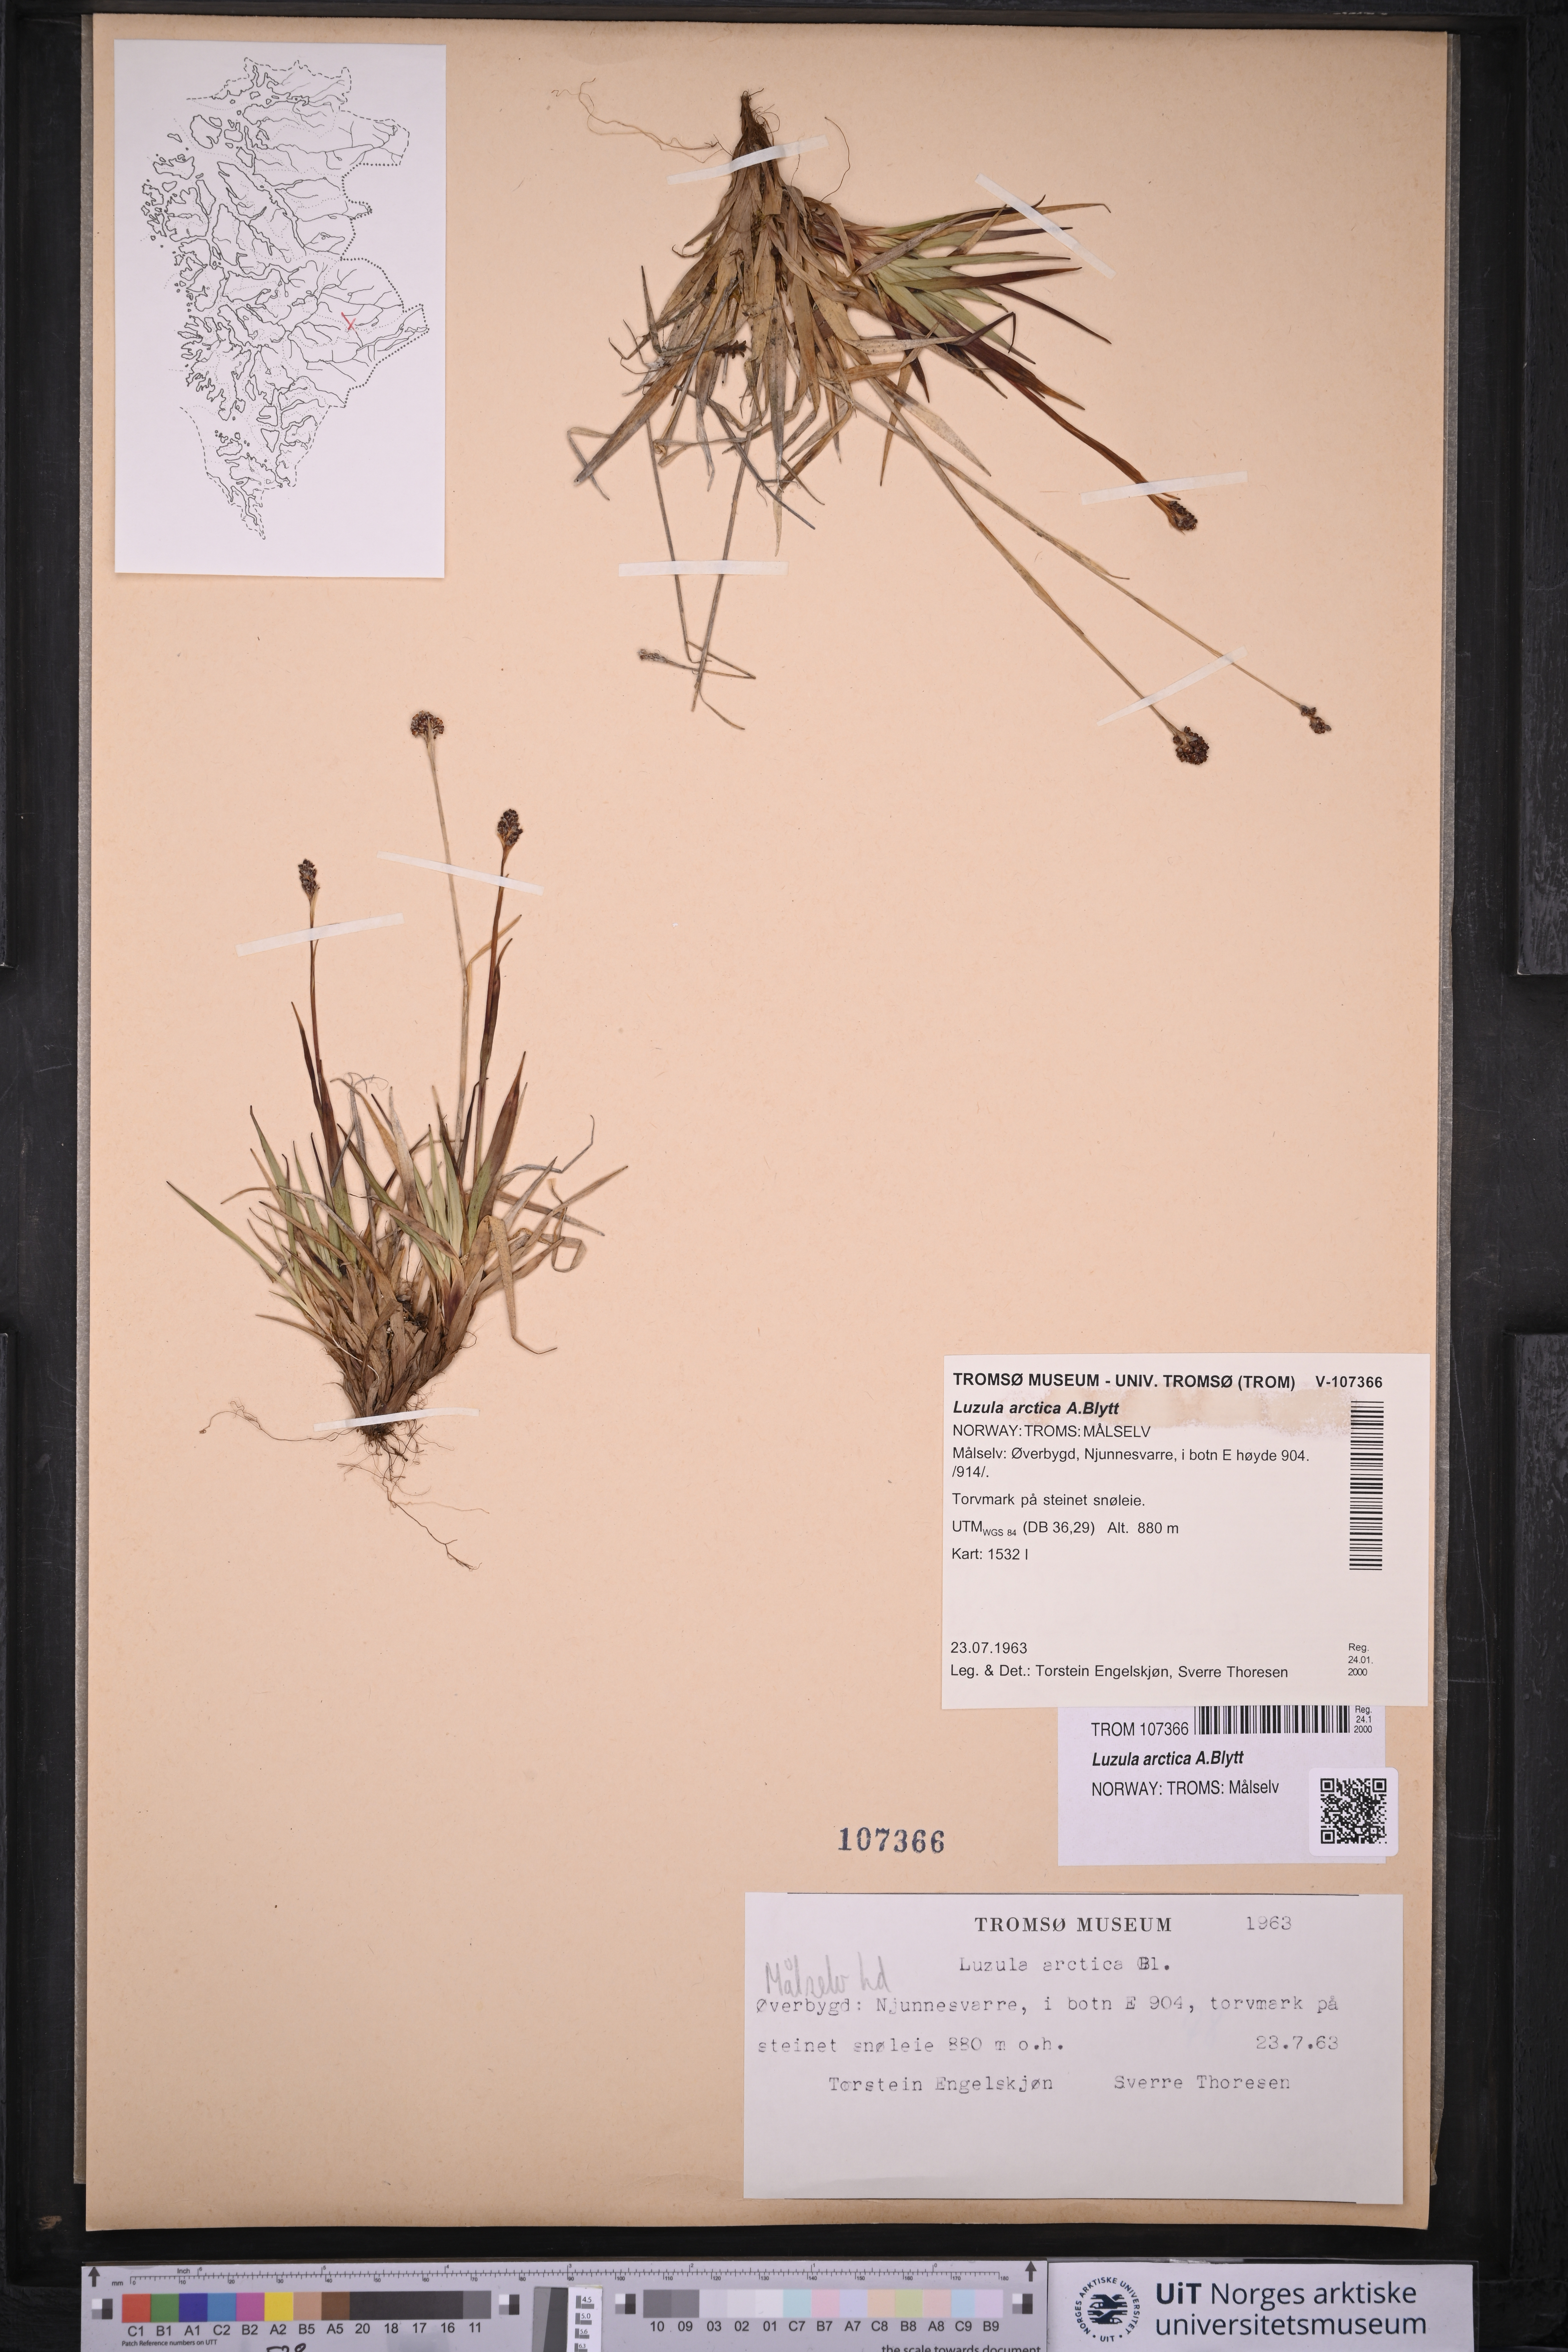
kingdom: Plantae
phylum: Tracheophyta
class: Liliopsida
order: Poales
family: Juncaceae
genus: Luzula
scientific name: Luzula nivalis
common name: Arctic woodrush
